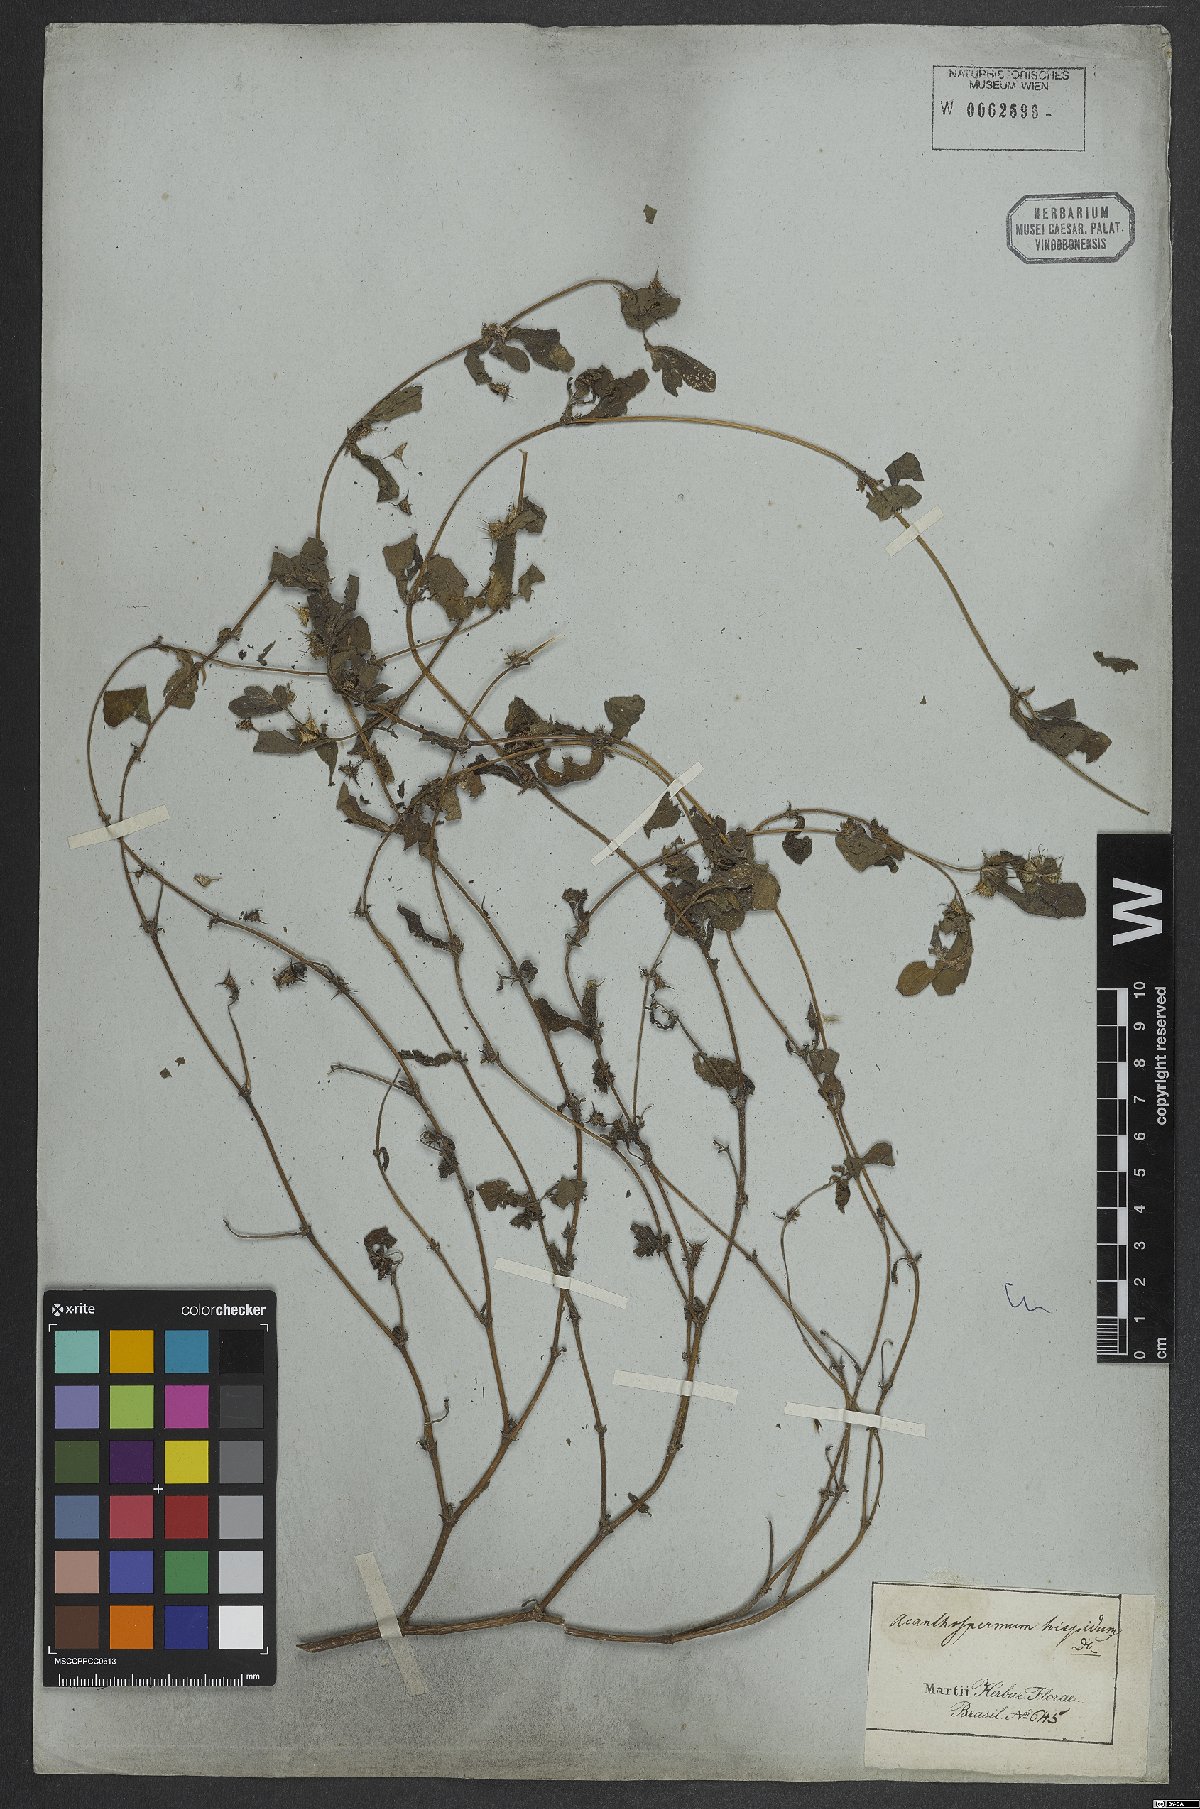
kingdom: Plantae
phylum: Tracheophyta
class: Magnoliopsida
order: Asterales
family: Asteraceae
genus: Acanthospermum
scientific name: Acanthospermum hispidum
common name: Hispid starbur
